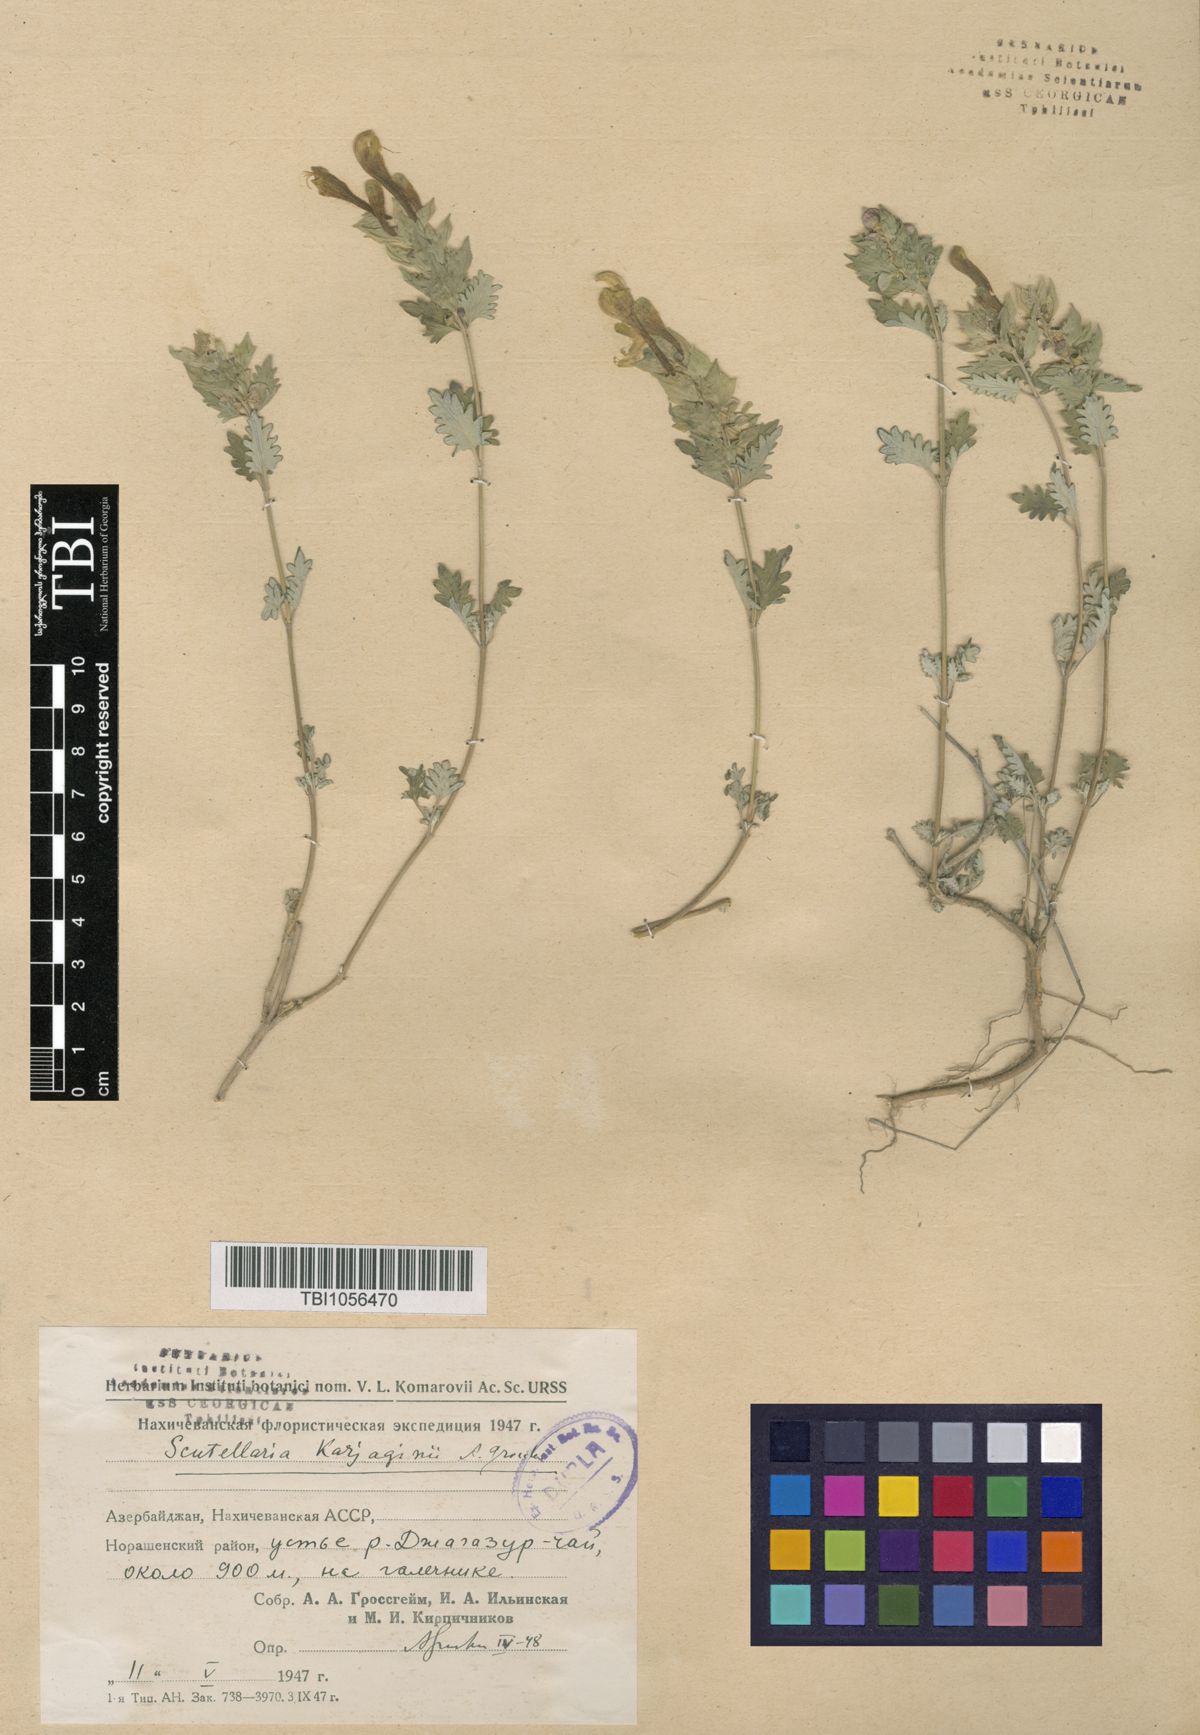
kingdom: Plantae
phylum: Tracheophyta
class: Magnoliopsida
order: Lamiales
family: Lamiaceae
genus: Scutellaria
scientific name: Scutellaria karjaginii
